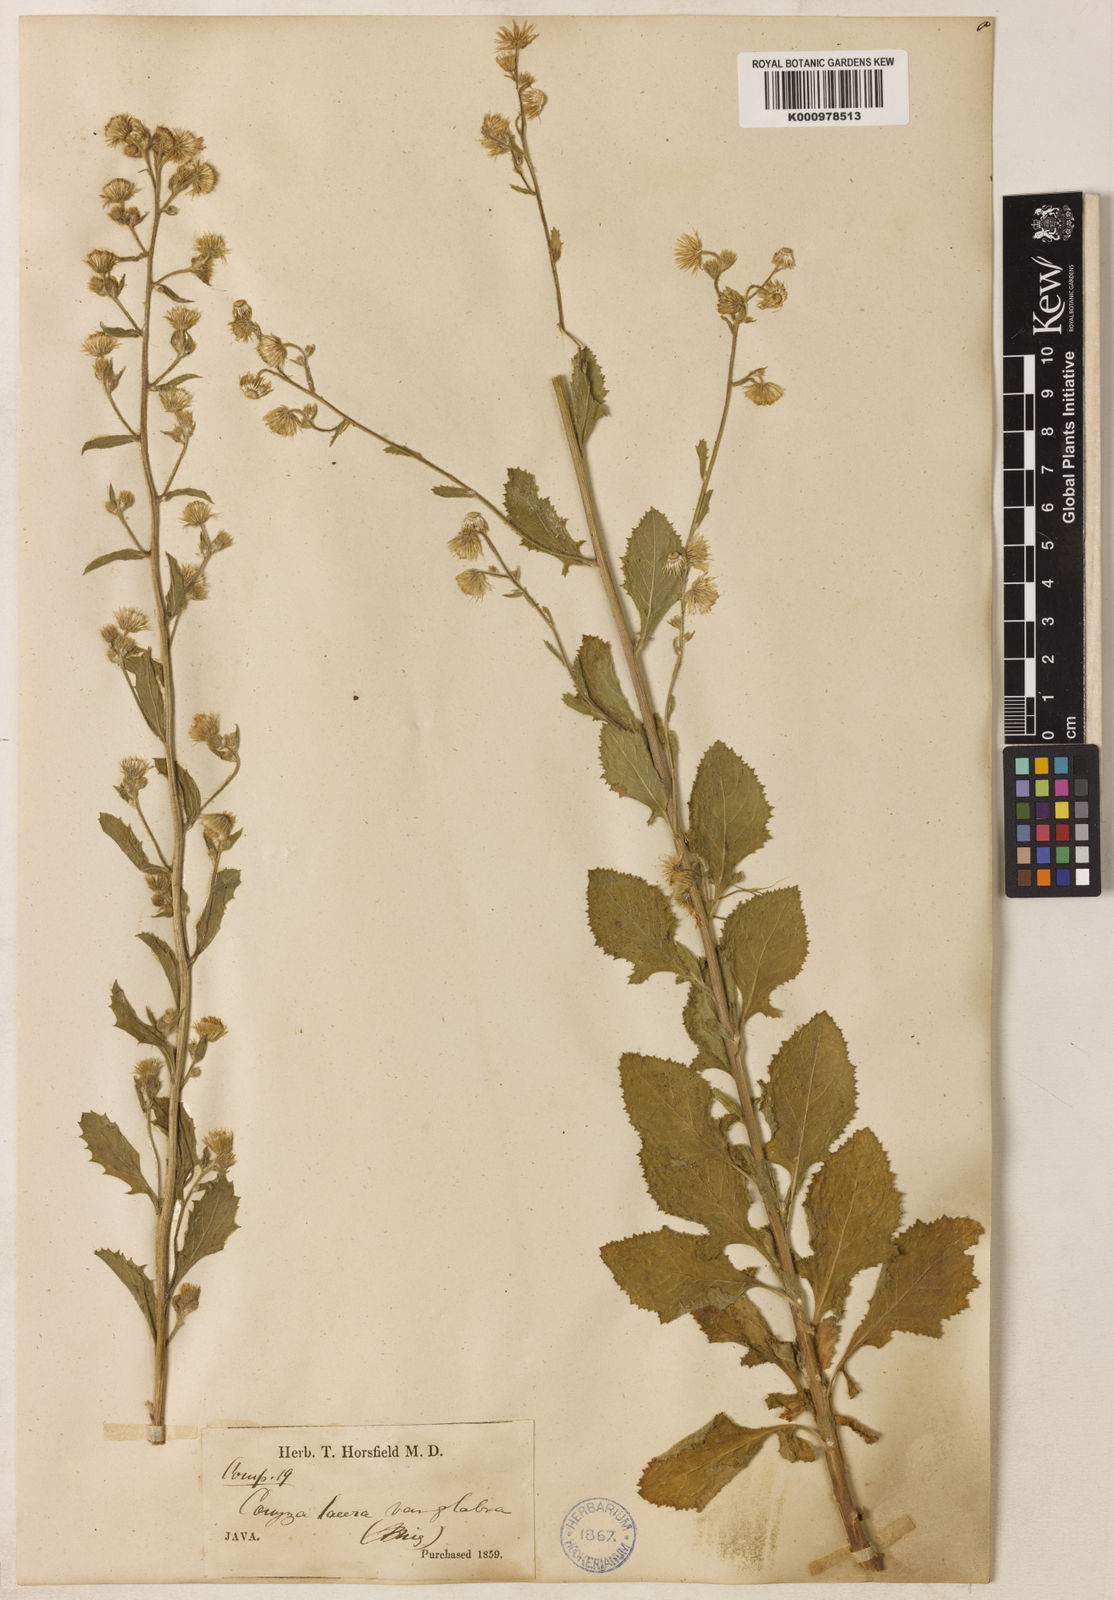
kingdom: Plantae
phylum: Tracheophyta
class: Magnoliopsida
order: Asterales
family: Asteraceae
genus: Blumea
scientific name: Blumea lacera
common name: Malay blumea
